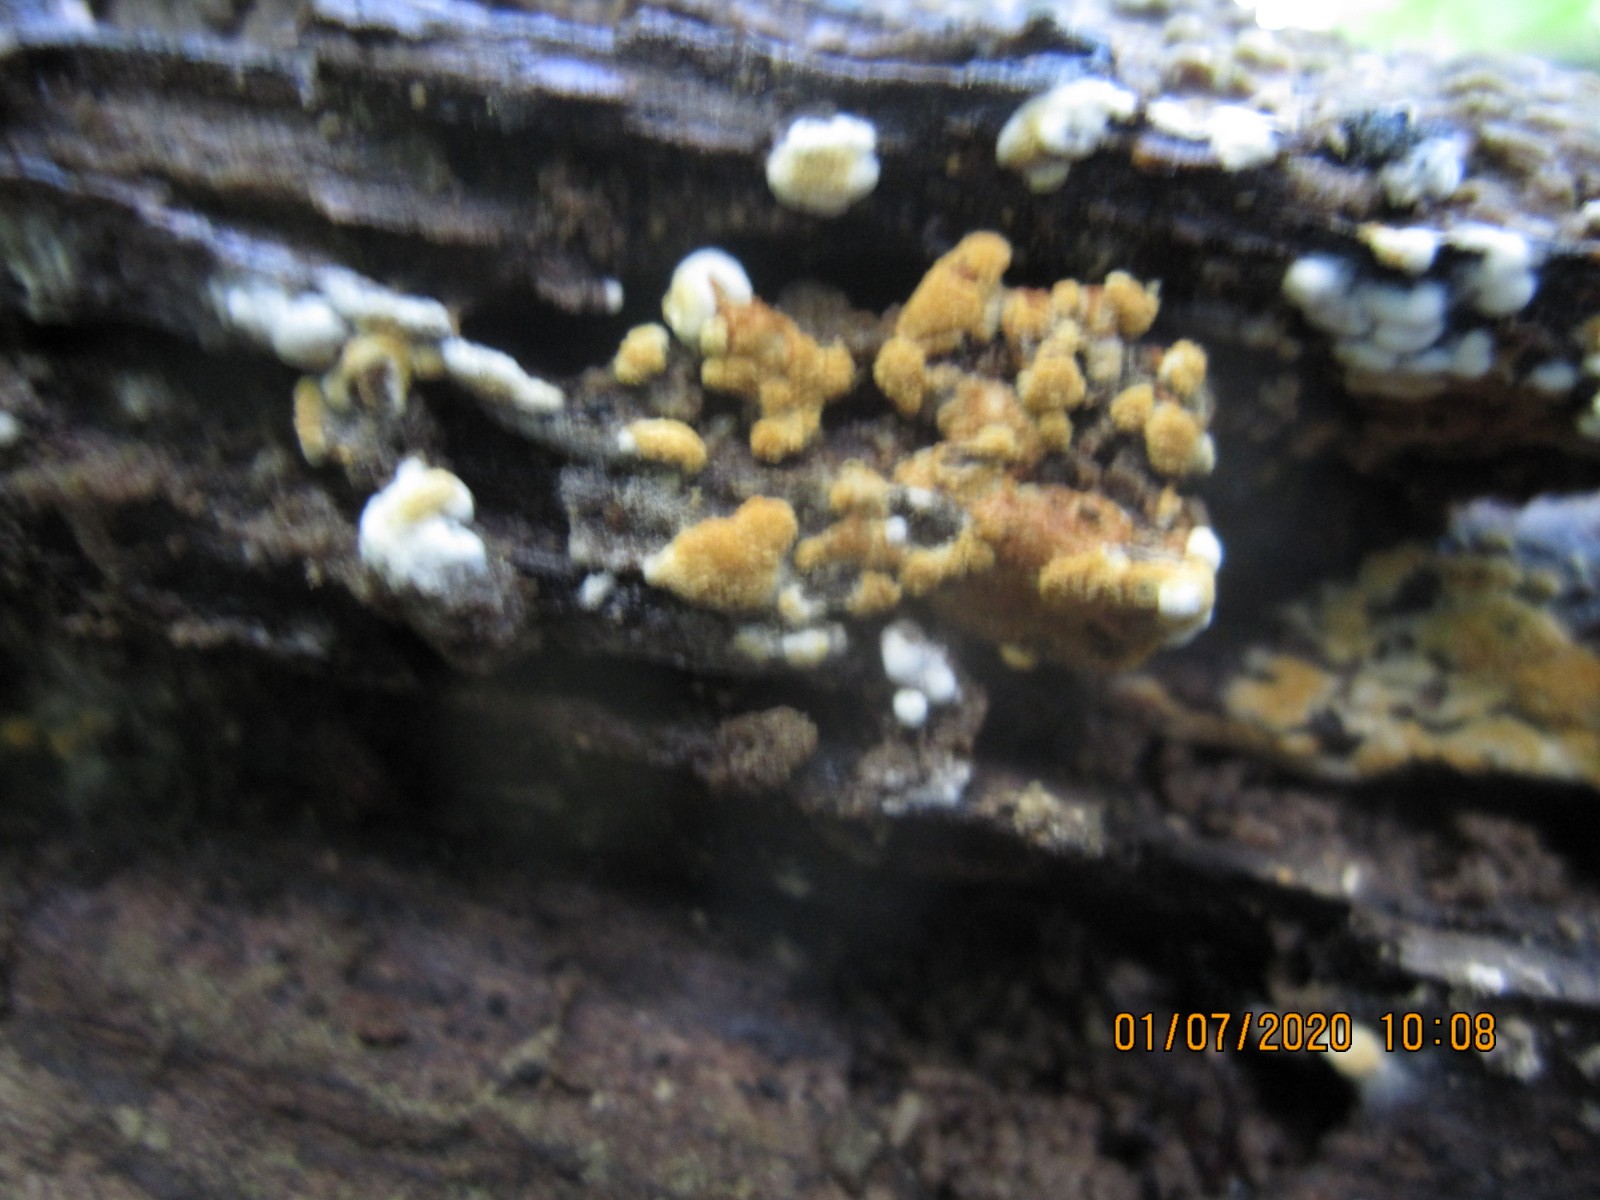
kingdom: Fungi
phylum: Basidiomycota
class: Agaricomycetes
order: Cantharellales
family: Botryobasidiaceae
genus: Botryobasidium
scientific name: Botryobasidium aureum
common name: gylden spindhinde
